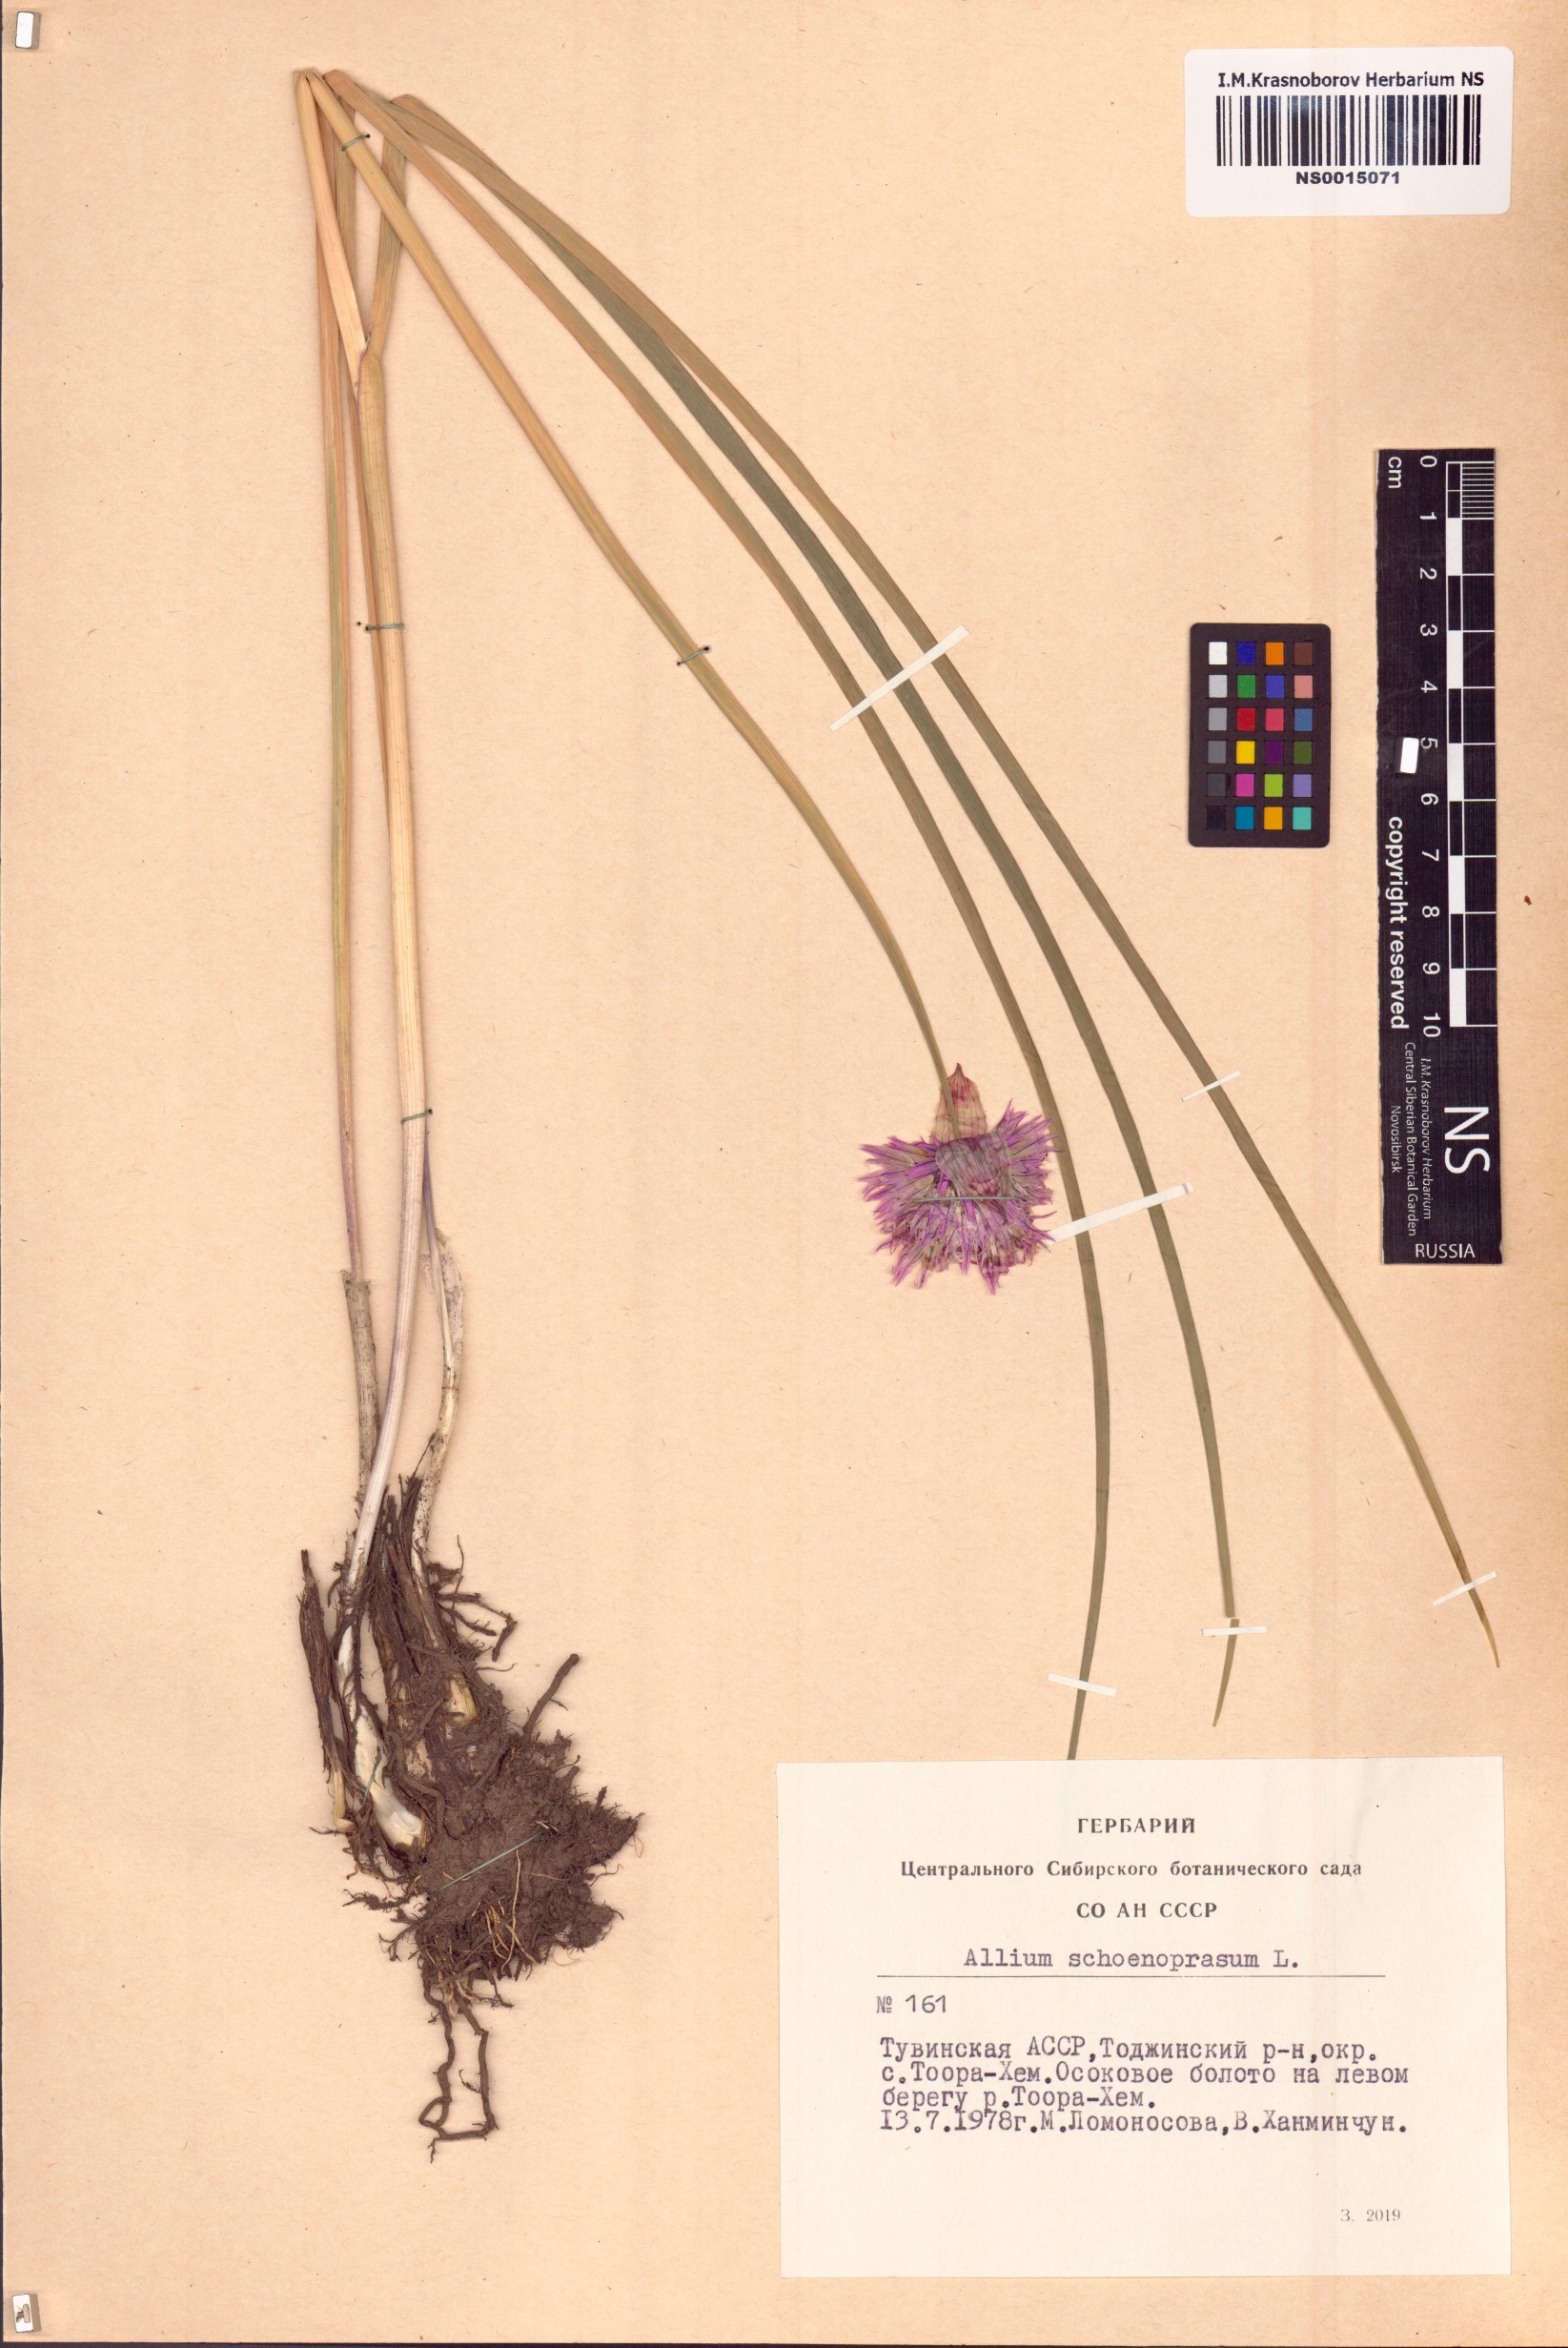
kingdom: Plantae
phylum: Tracheophyta
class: Liliopsida
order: Asparagales
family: Amaryllidaceae
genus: Allium
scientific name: Allium schoenoprasum
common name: Chives
